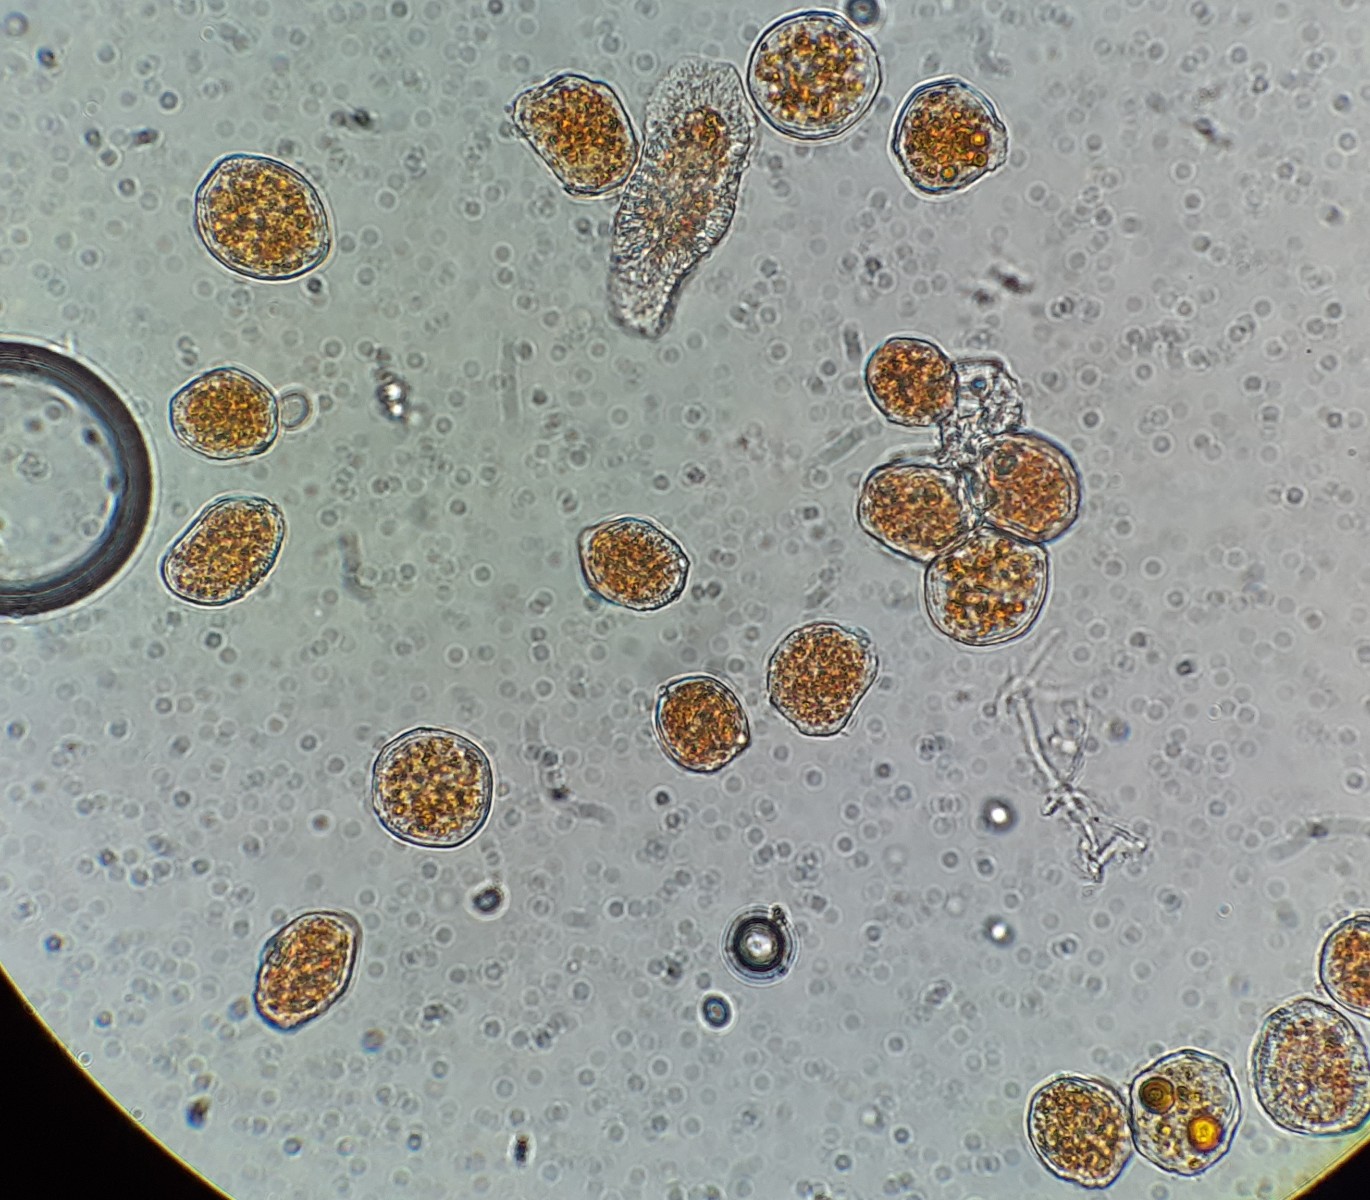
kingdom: Fungi
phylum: Basidiomycota
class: Pucciniomycetes
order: Pucciniales
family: Pucciniaceae
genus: Puccinia
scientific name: Puccinia lagenophorae
